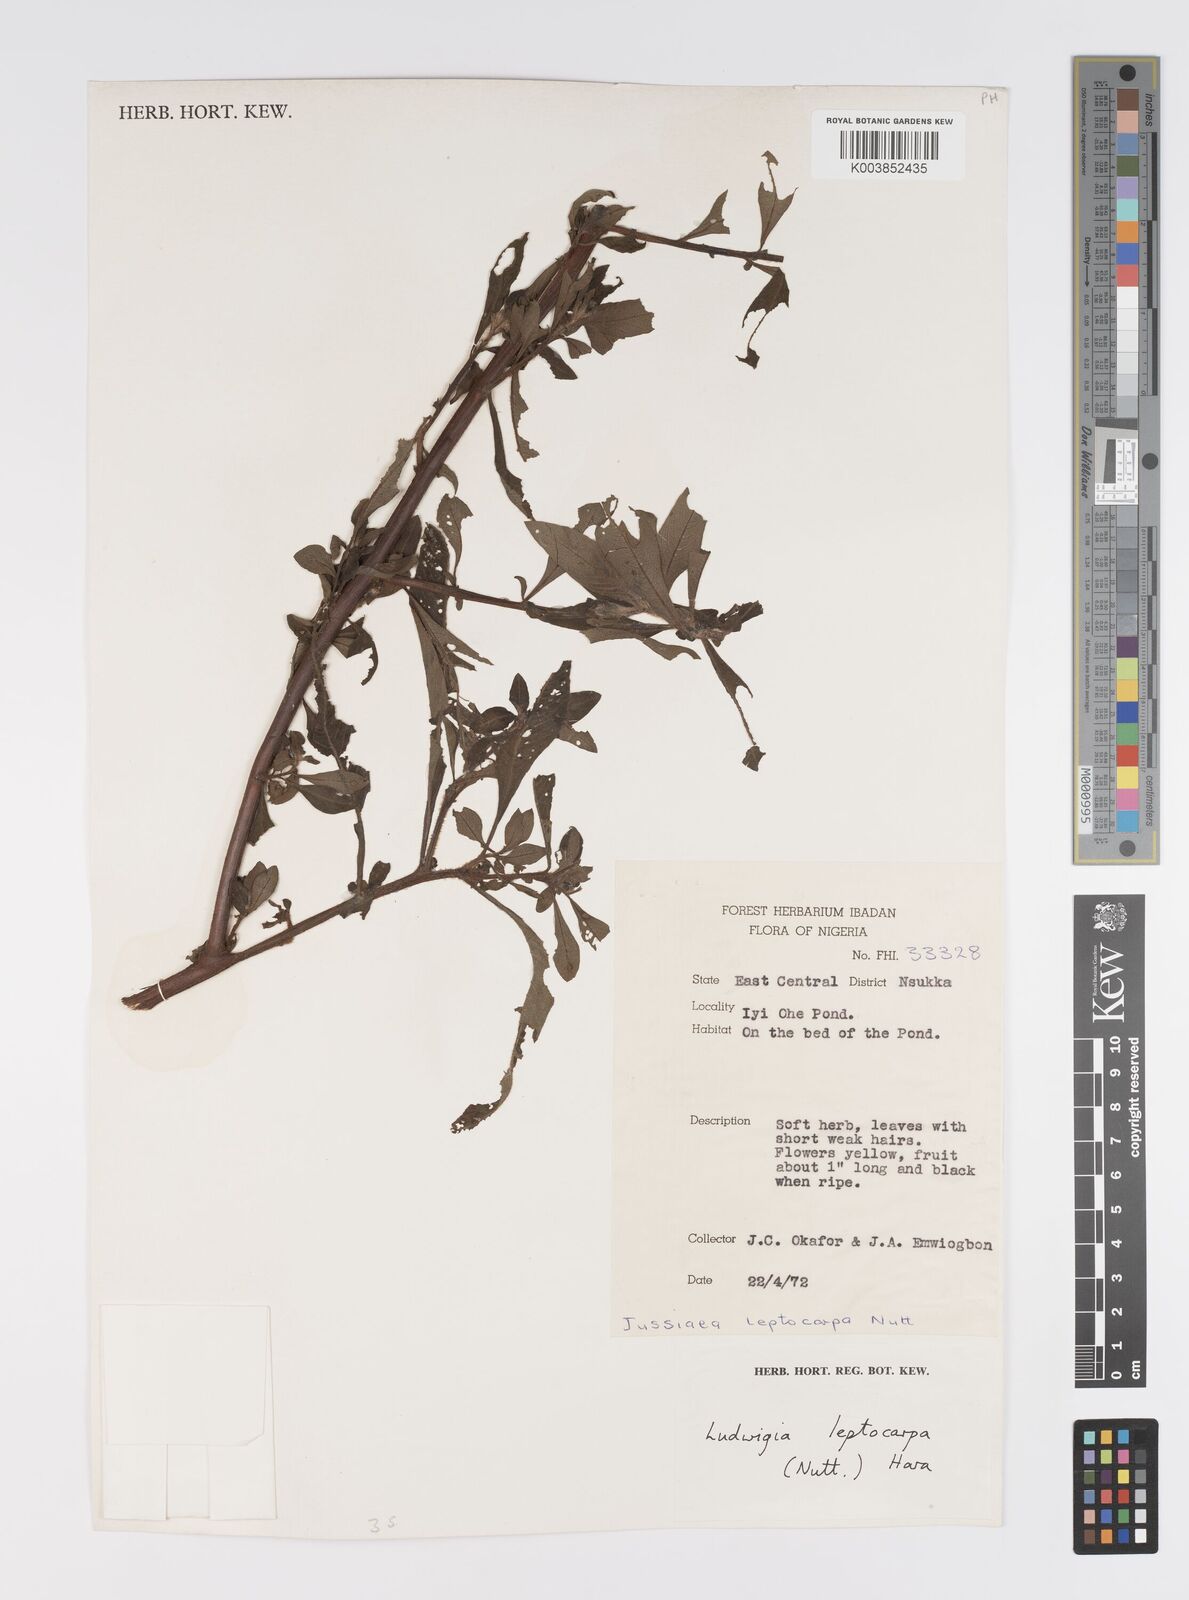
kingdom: Plantae
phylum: Tracheophyta
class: Magnoliopsida
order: Myrtales
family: Onagraceae
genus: Ludwigia
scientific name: Ludwigia leptocarpa
